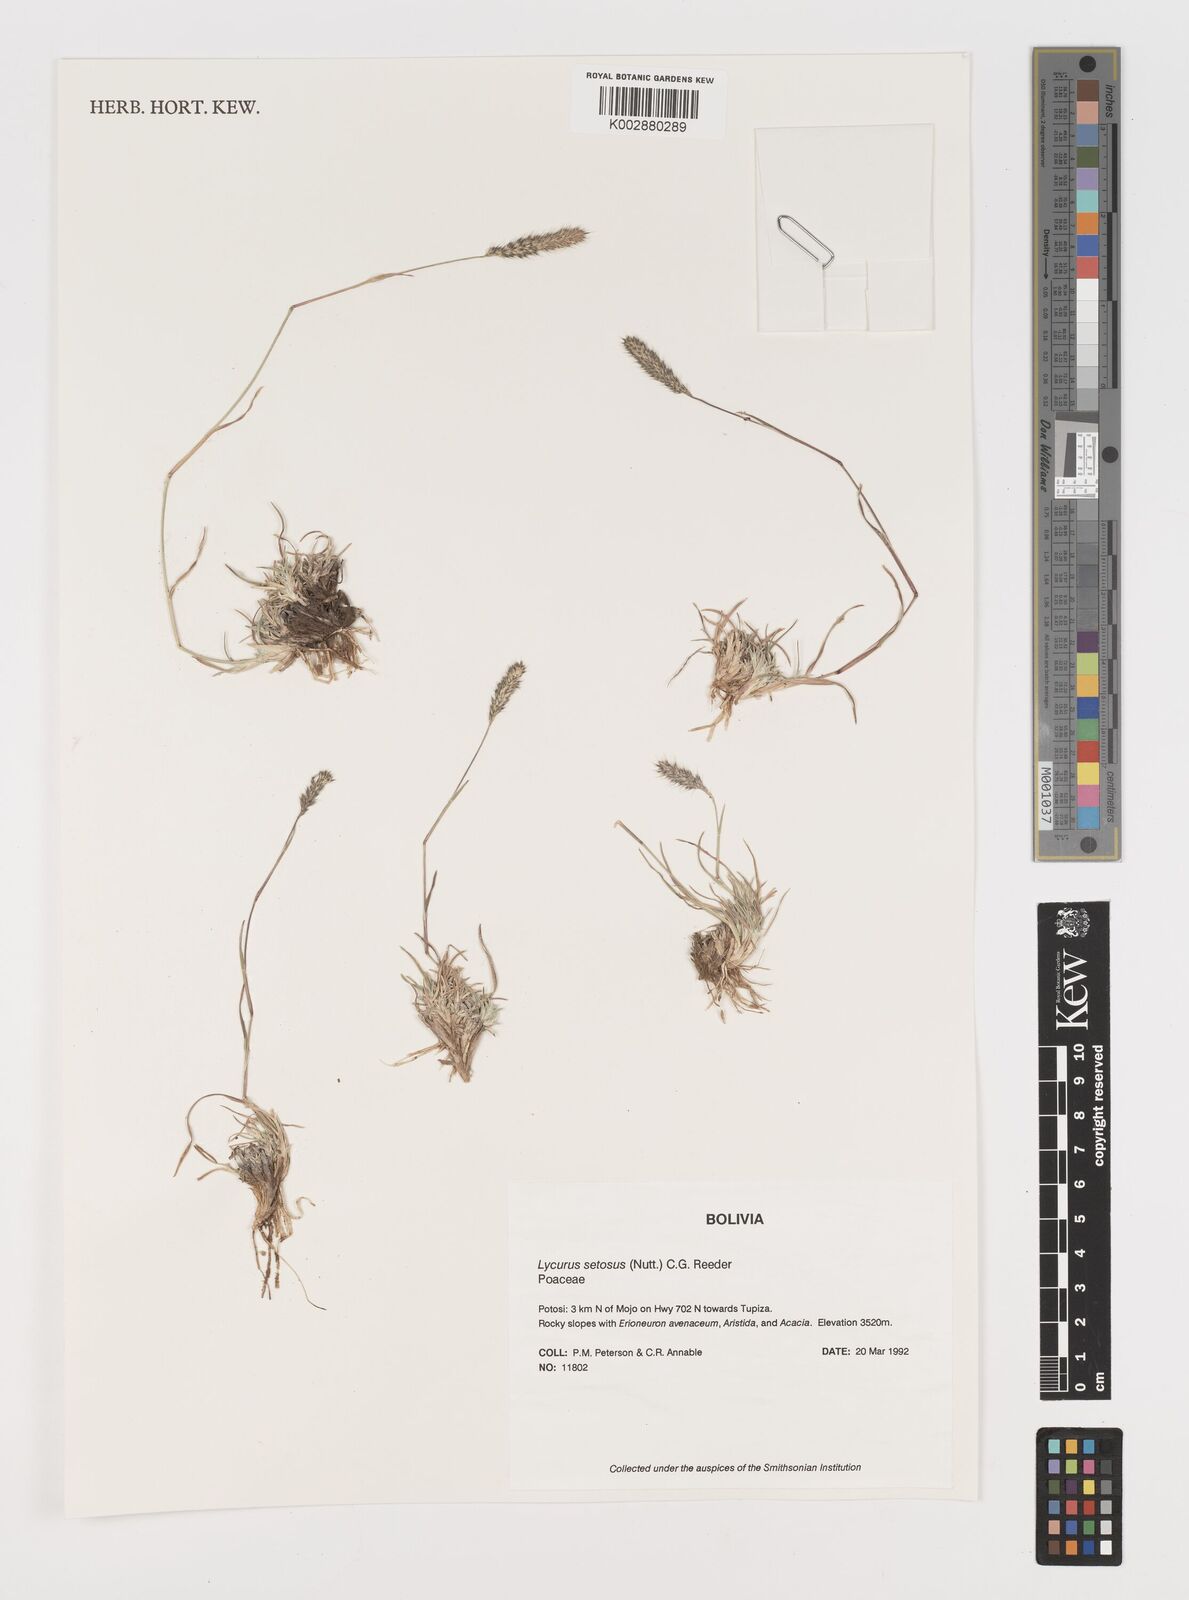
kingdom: Plantae
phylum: Tracheophyta
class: Liliopsida
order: Poales
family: Poaceae
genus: Muhlenbergia
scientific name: Muhlenbergia phleoides
